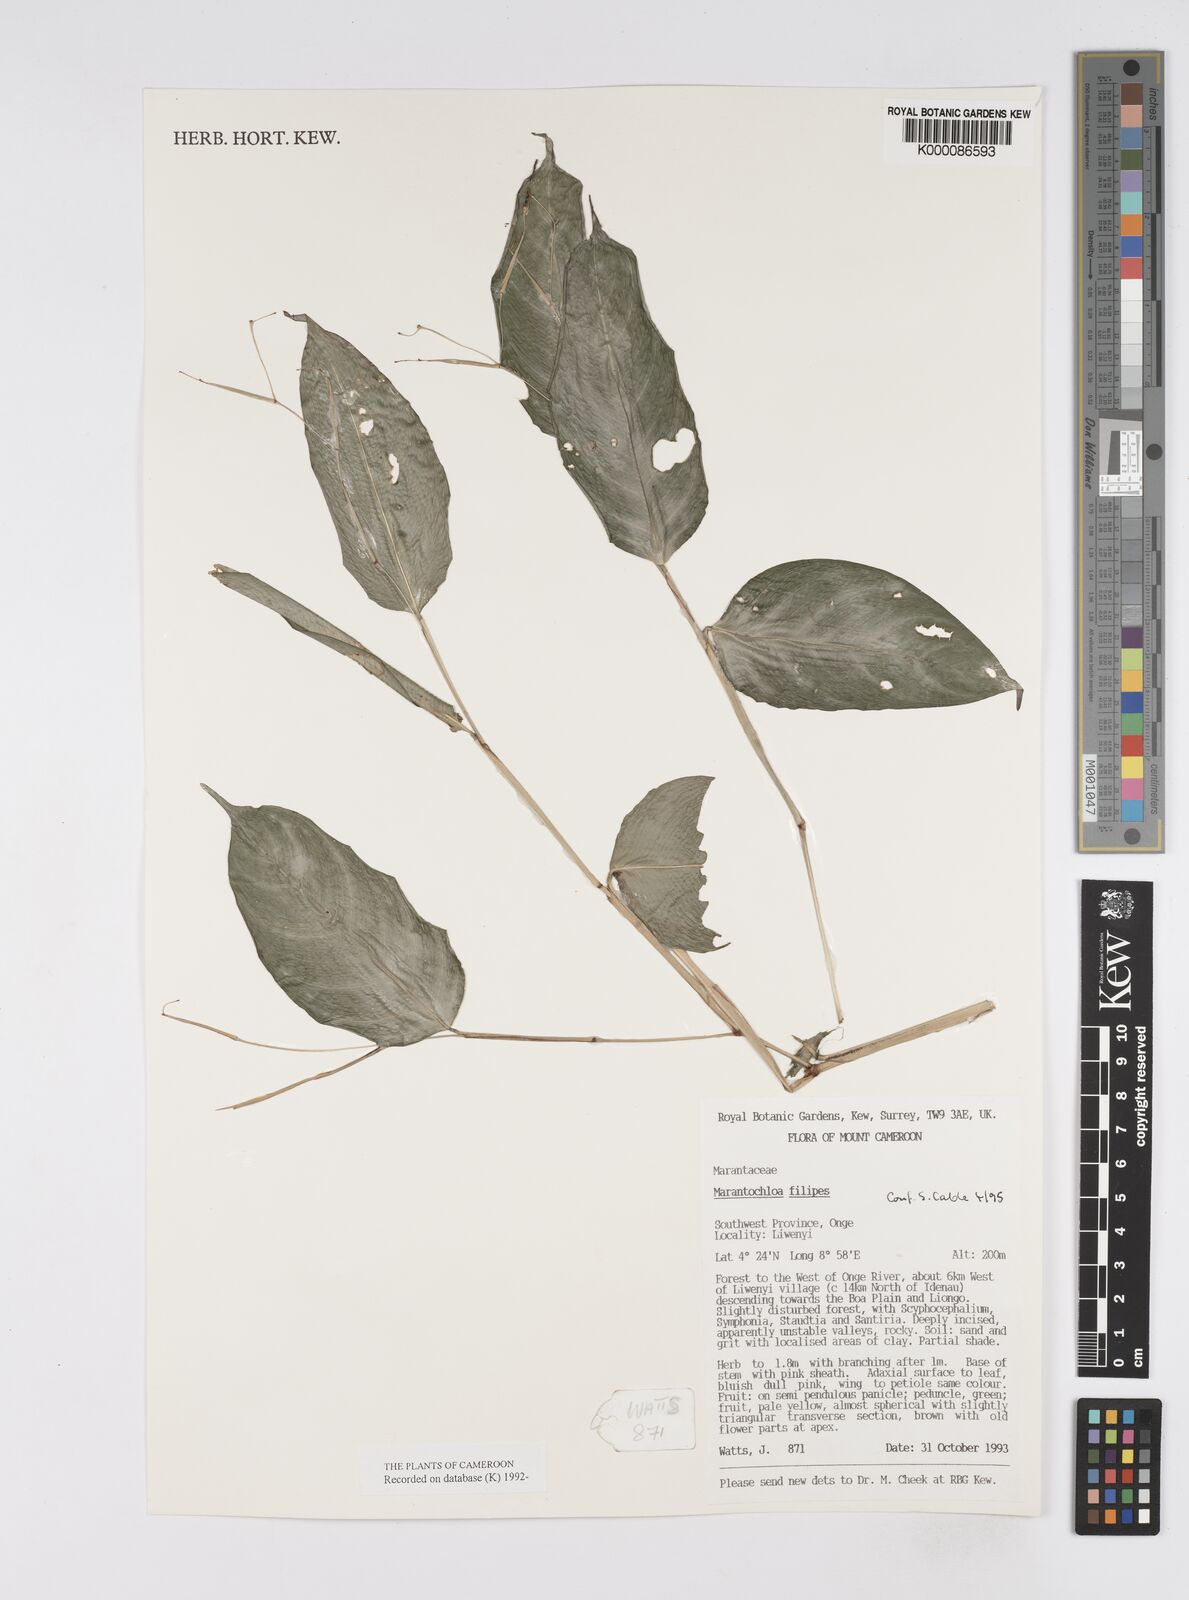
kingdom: Plantae
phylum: Tracheophyta
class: Liliopsida
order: Zingiberales
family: Marantaceae
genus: Marantochloa
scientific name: Marantochloa filipes
